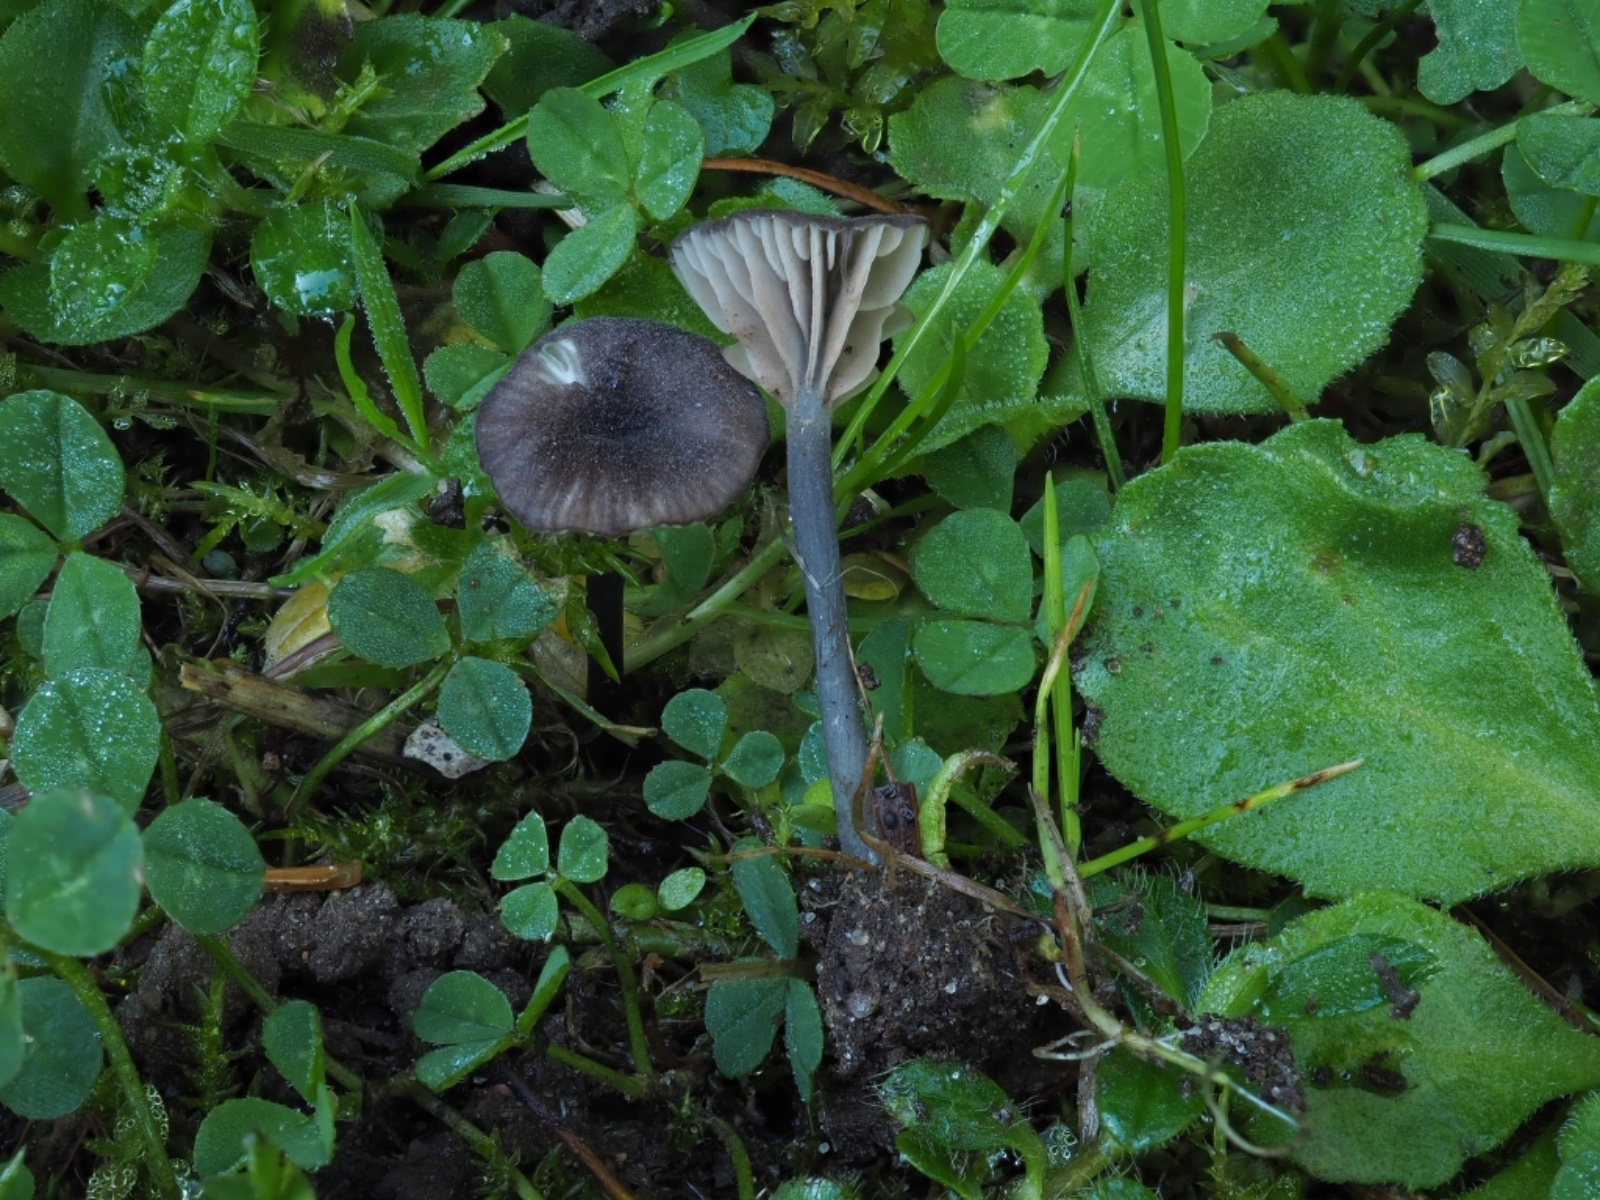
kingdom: Fungi
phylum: Basidiomycota
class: Agaricomycetes
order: Agaricales
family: Entolomataceae
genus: Entoloma
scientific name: Entoloma incarnatofuscescens
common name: tragt-rødblad
